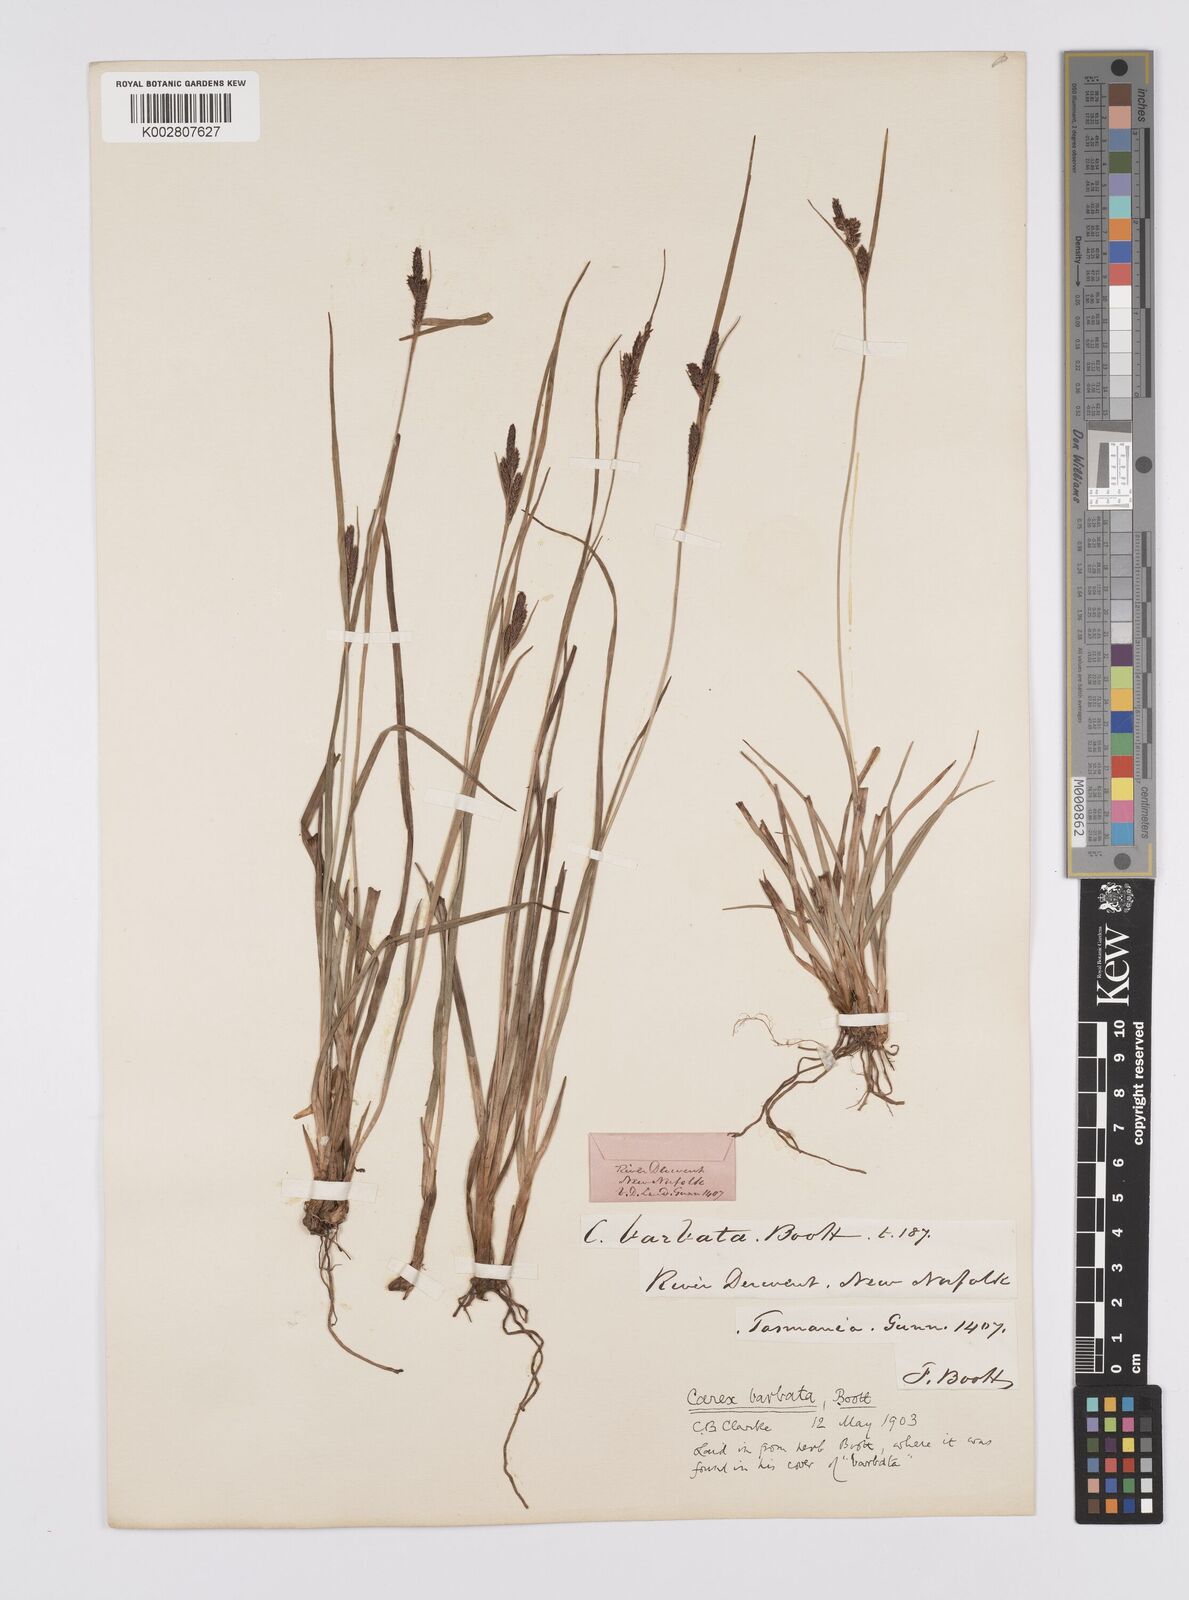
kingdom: Plantae
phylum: Tracheophyta
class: Liliopsida
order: Poales
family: Cyperaceae
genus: Carex
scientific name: Carex barbata
